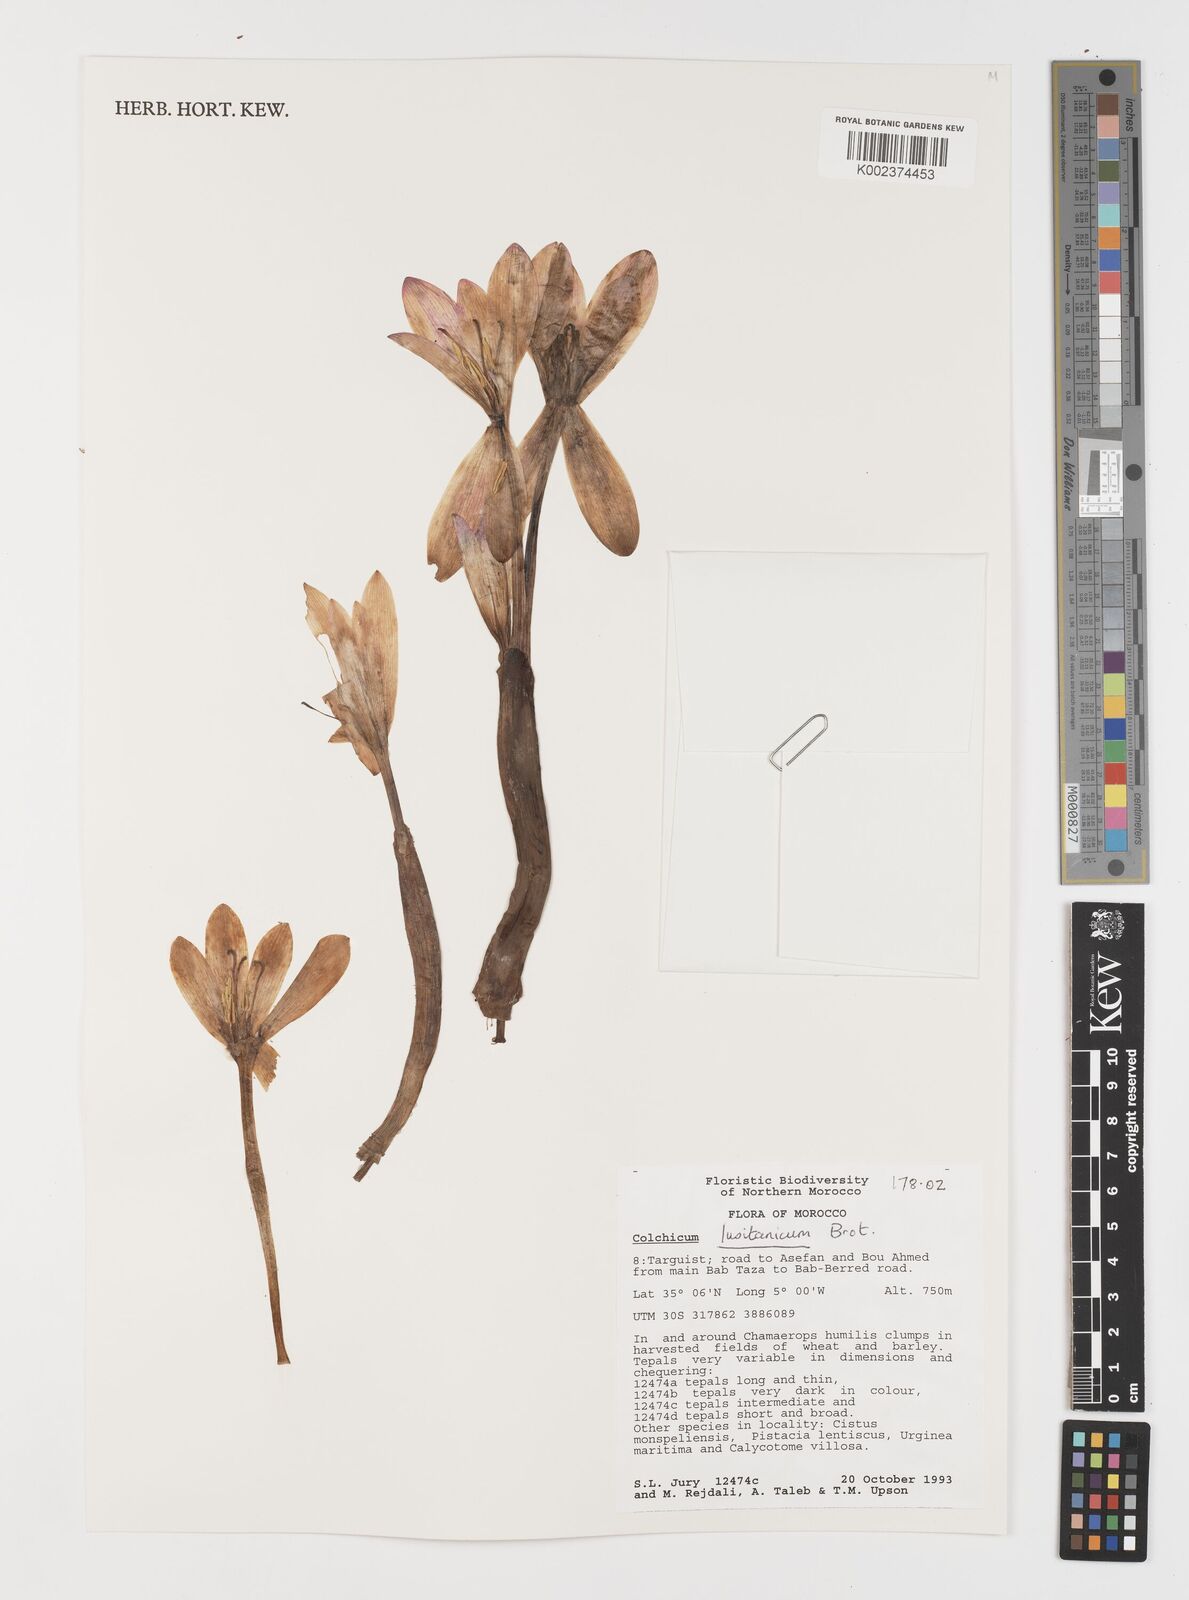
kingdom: Plantae
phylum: Tracheophyta
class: Liliopsida
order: Liliales
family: Colchicaceae
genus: Colchicum
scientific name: Colchicum lusitanum
